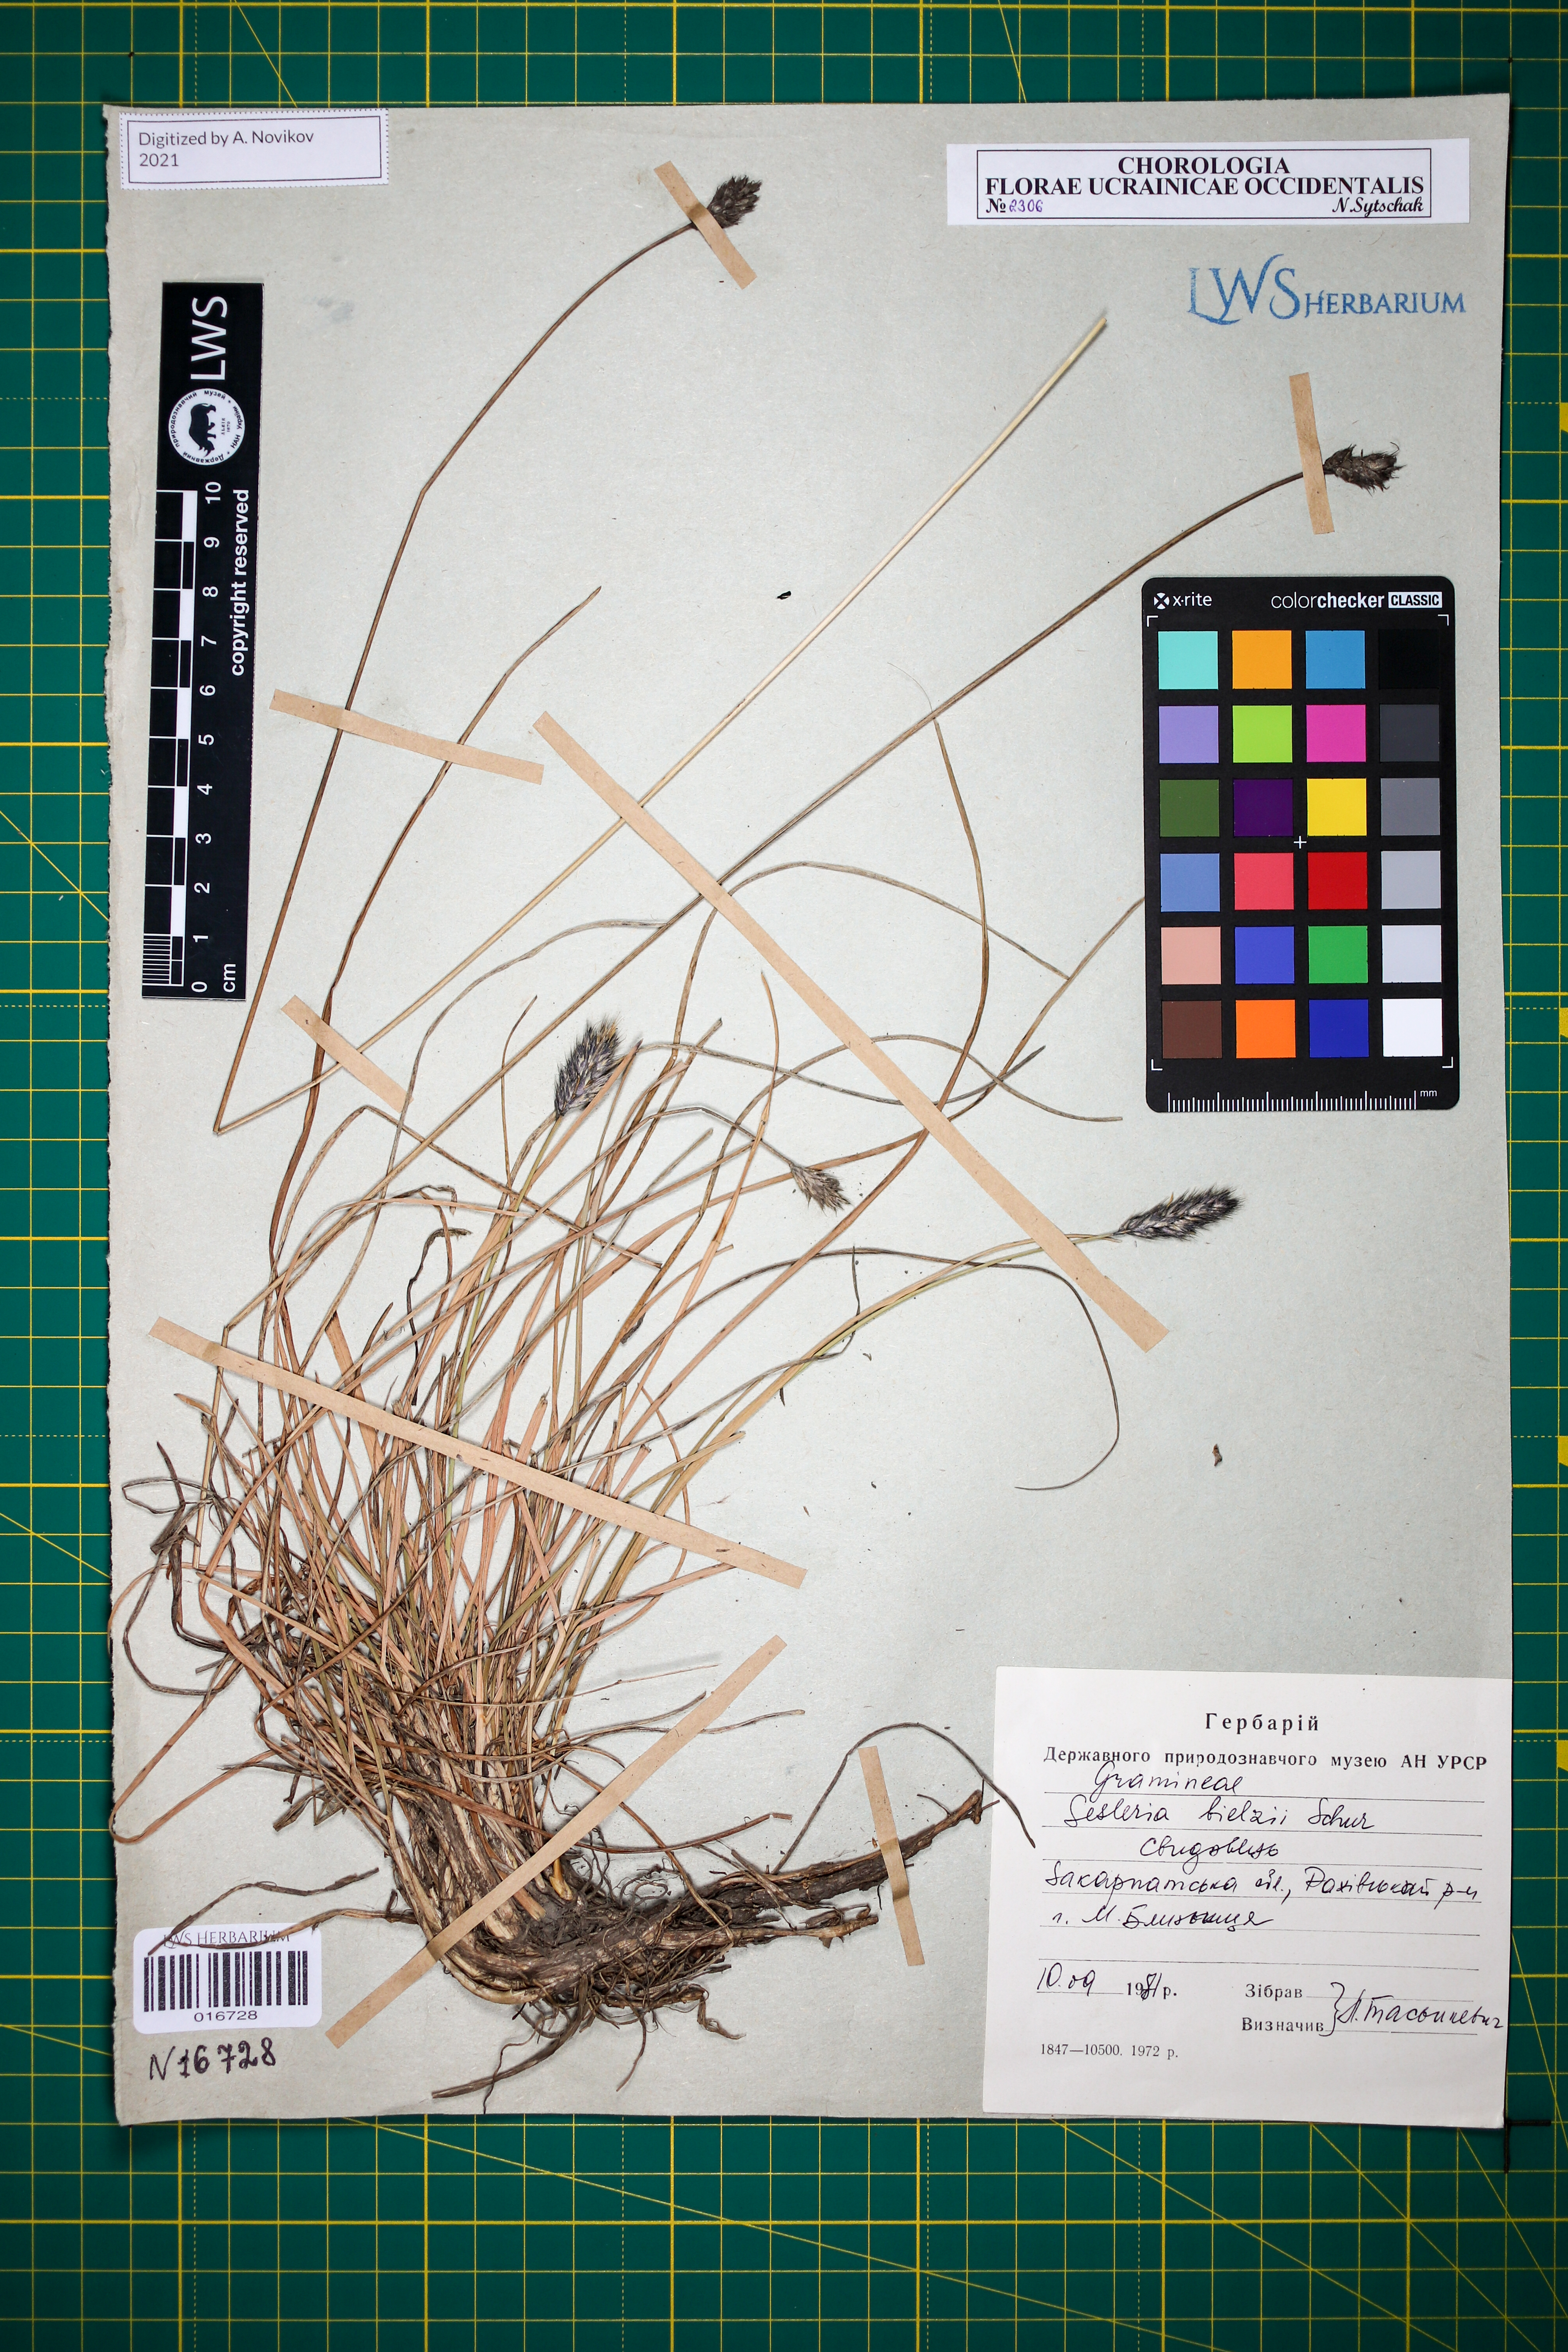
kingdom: Plantae
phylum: Tracheophyta
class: Liliopsida
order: Poales
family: Poaceae
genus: Sesleria
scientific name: Sesleria bielzii
